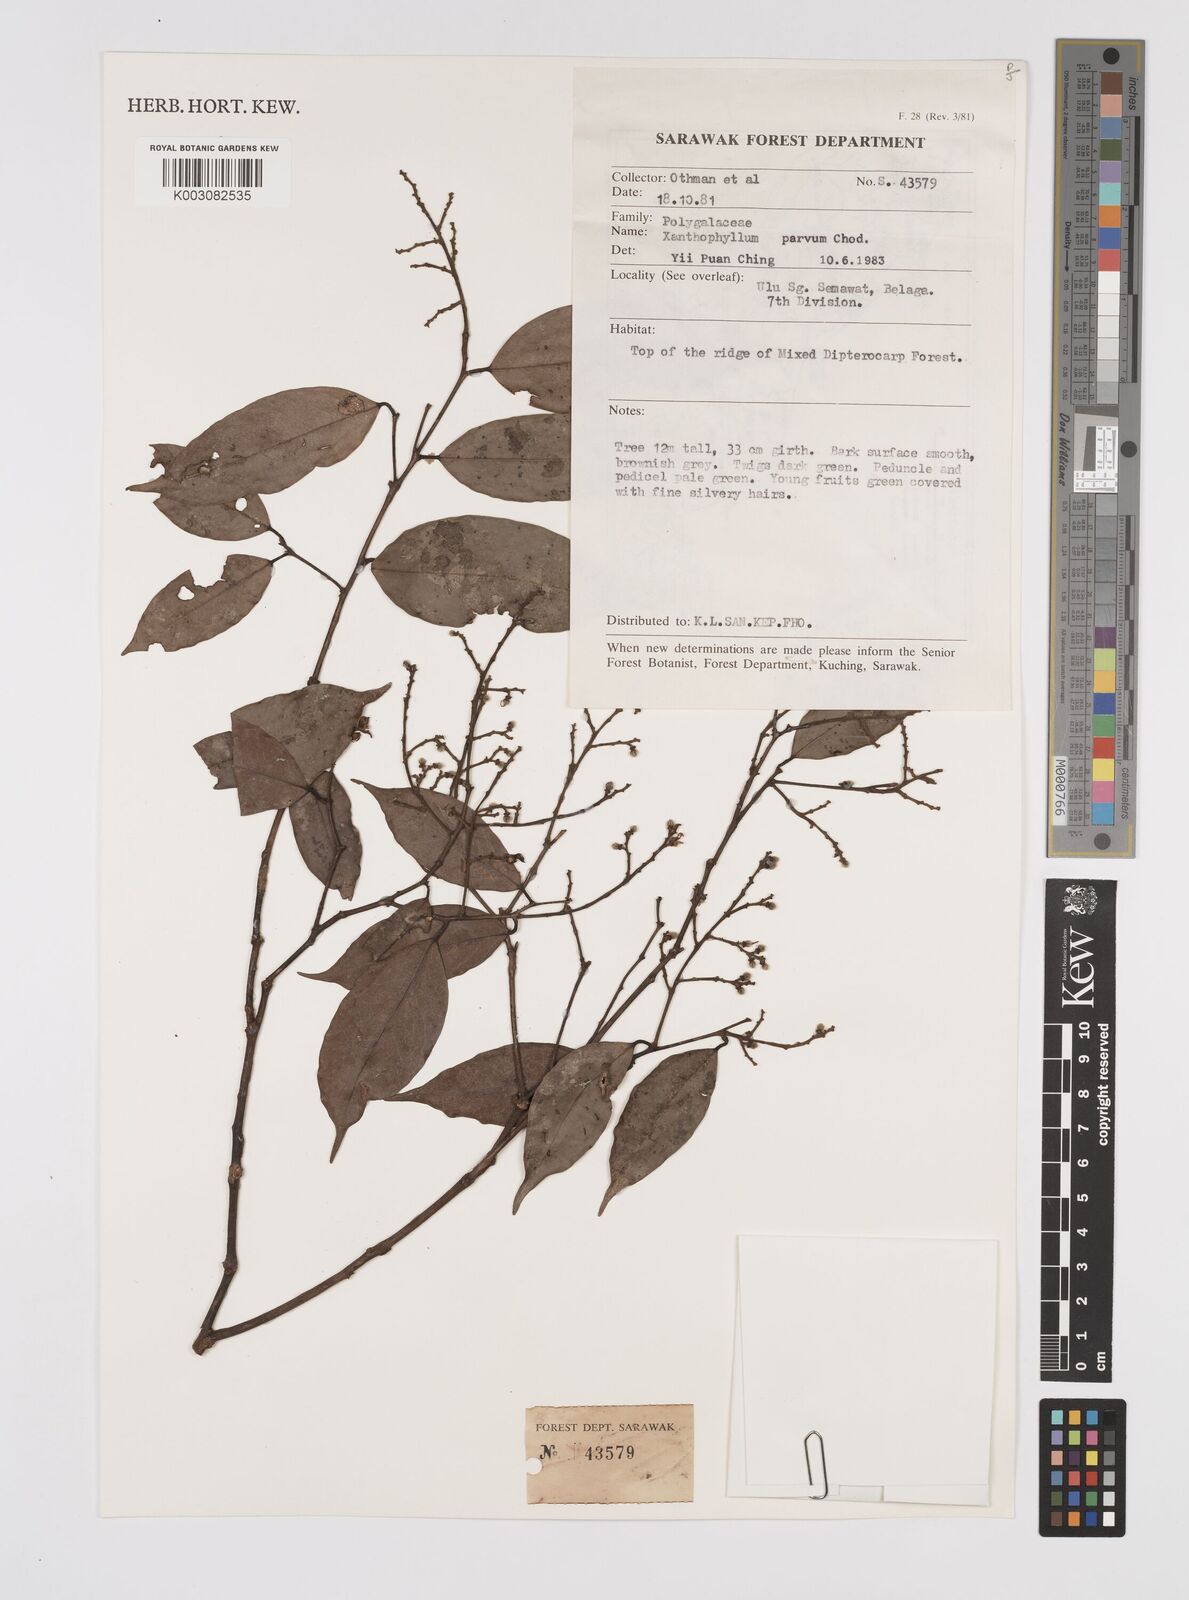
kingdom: Plantae
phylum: Tracheophyta
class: Magnoliopsida
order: Fabales
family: Polygalaceae
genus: Xanthophyllum
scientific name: Xanthophyllum griffithii
